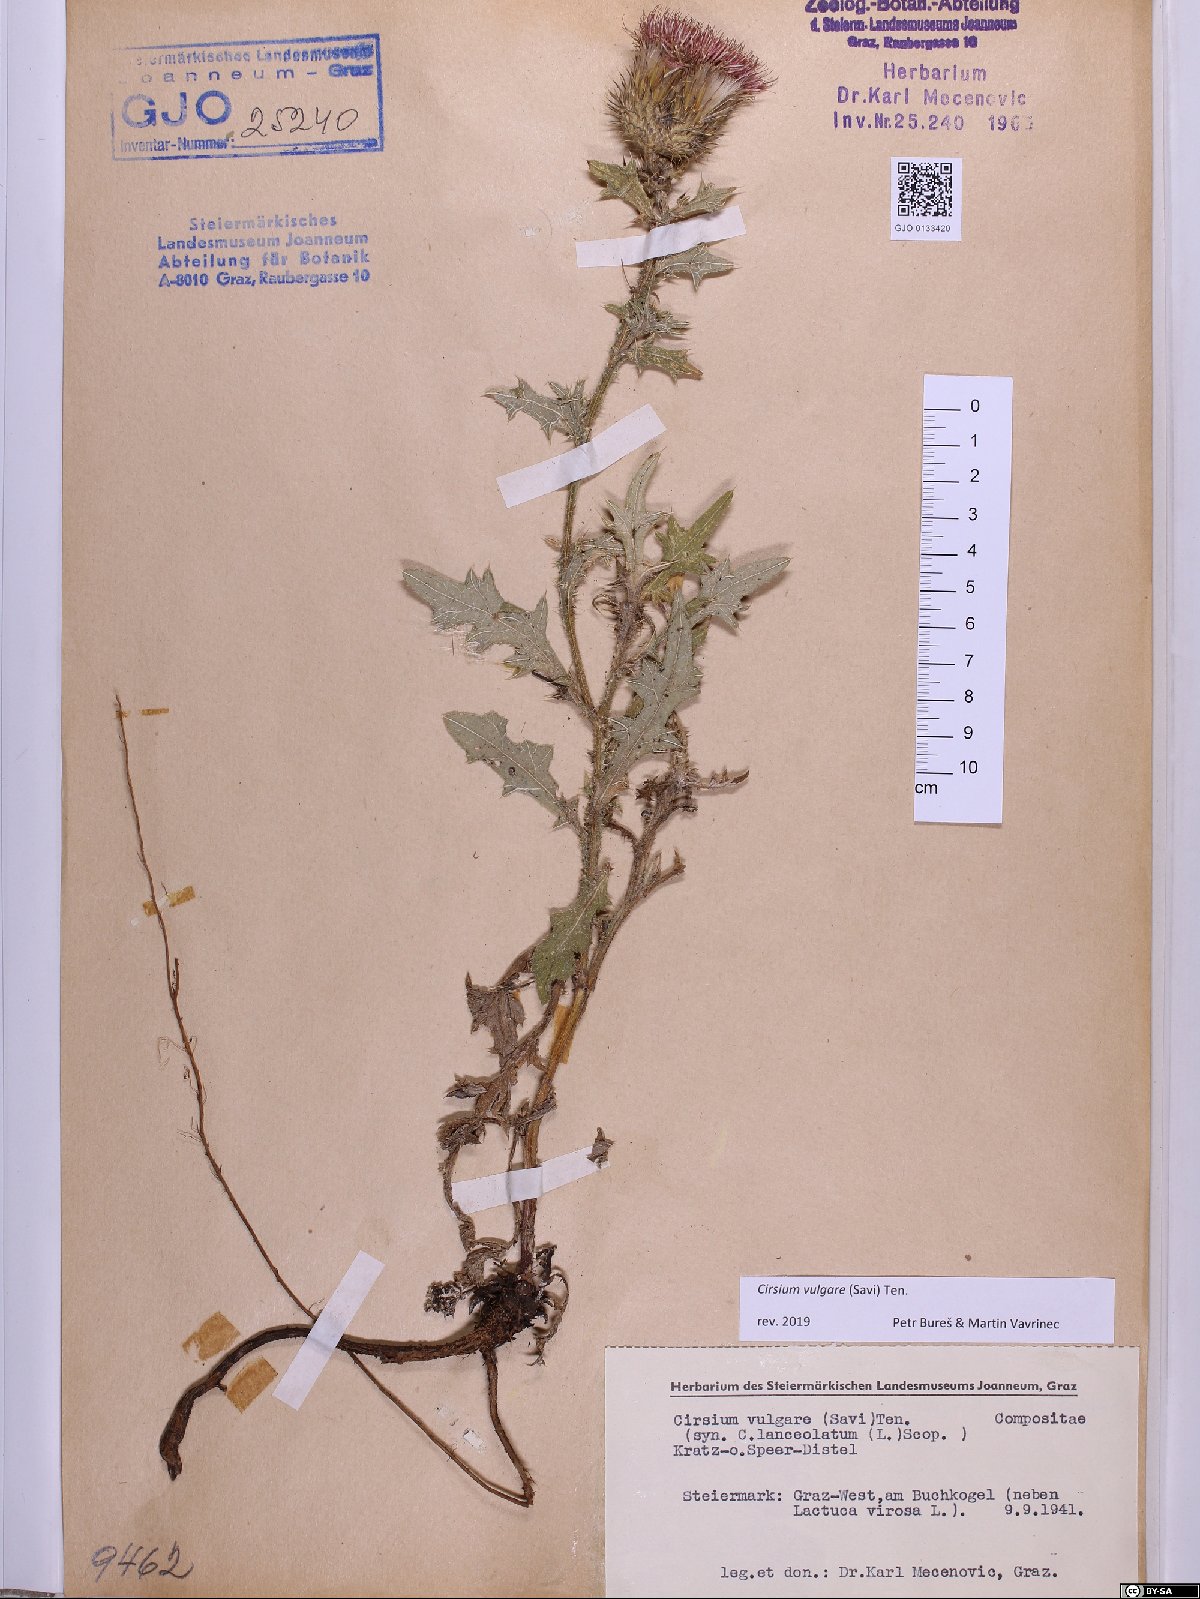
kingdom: Plantae
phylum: Tracheophyta
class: Magnoliopsida
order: Asterales
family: Asteraceae
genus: Cirsium
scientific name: Cirsium vulgare
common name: Bull thistle
